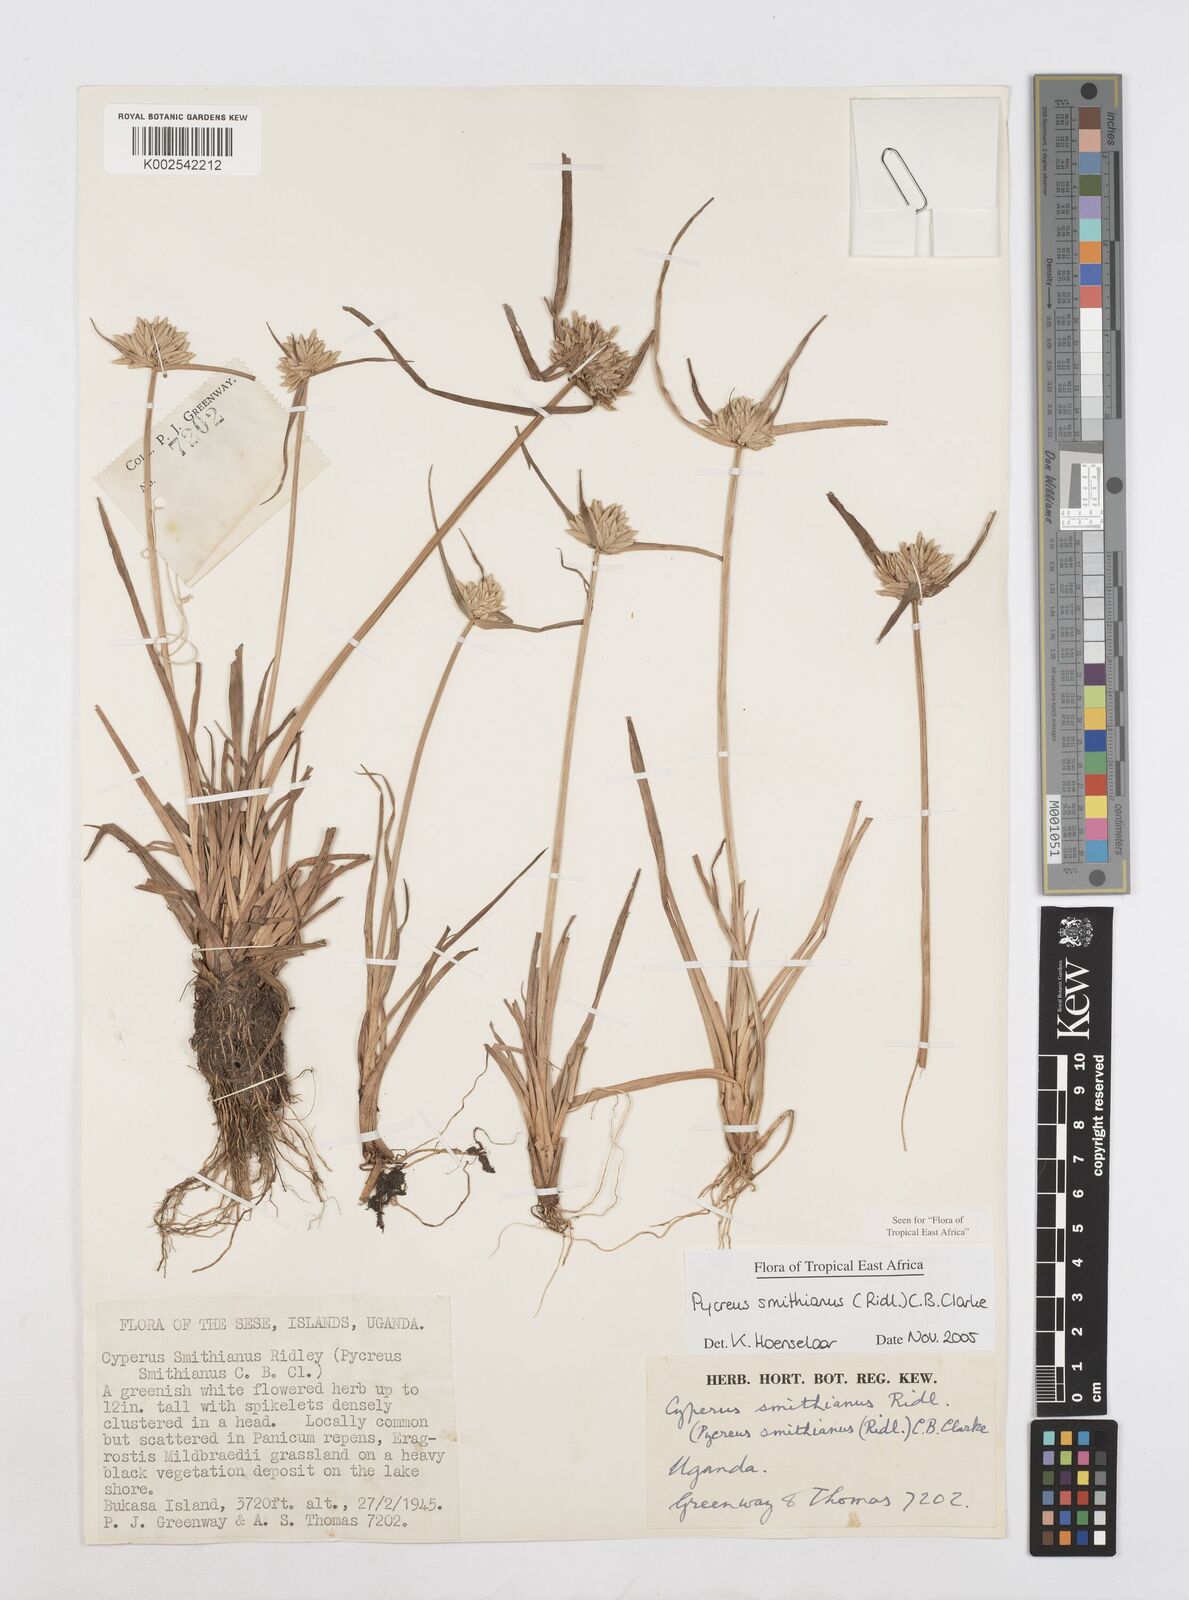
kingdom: Plantae
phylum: Tracheophyta
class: Liliopsida
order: Poales
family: Cyperaceae
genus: Cyperus
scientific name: Cyperus smithianus
